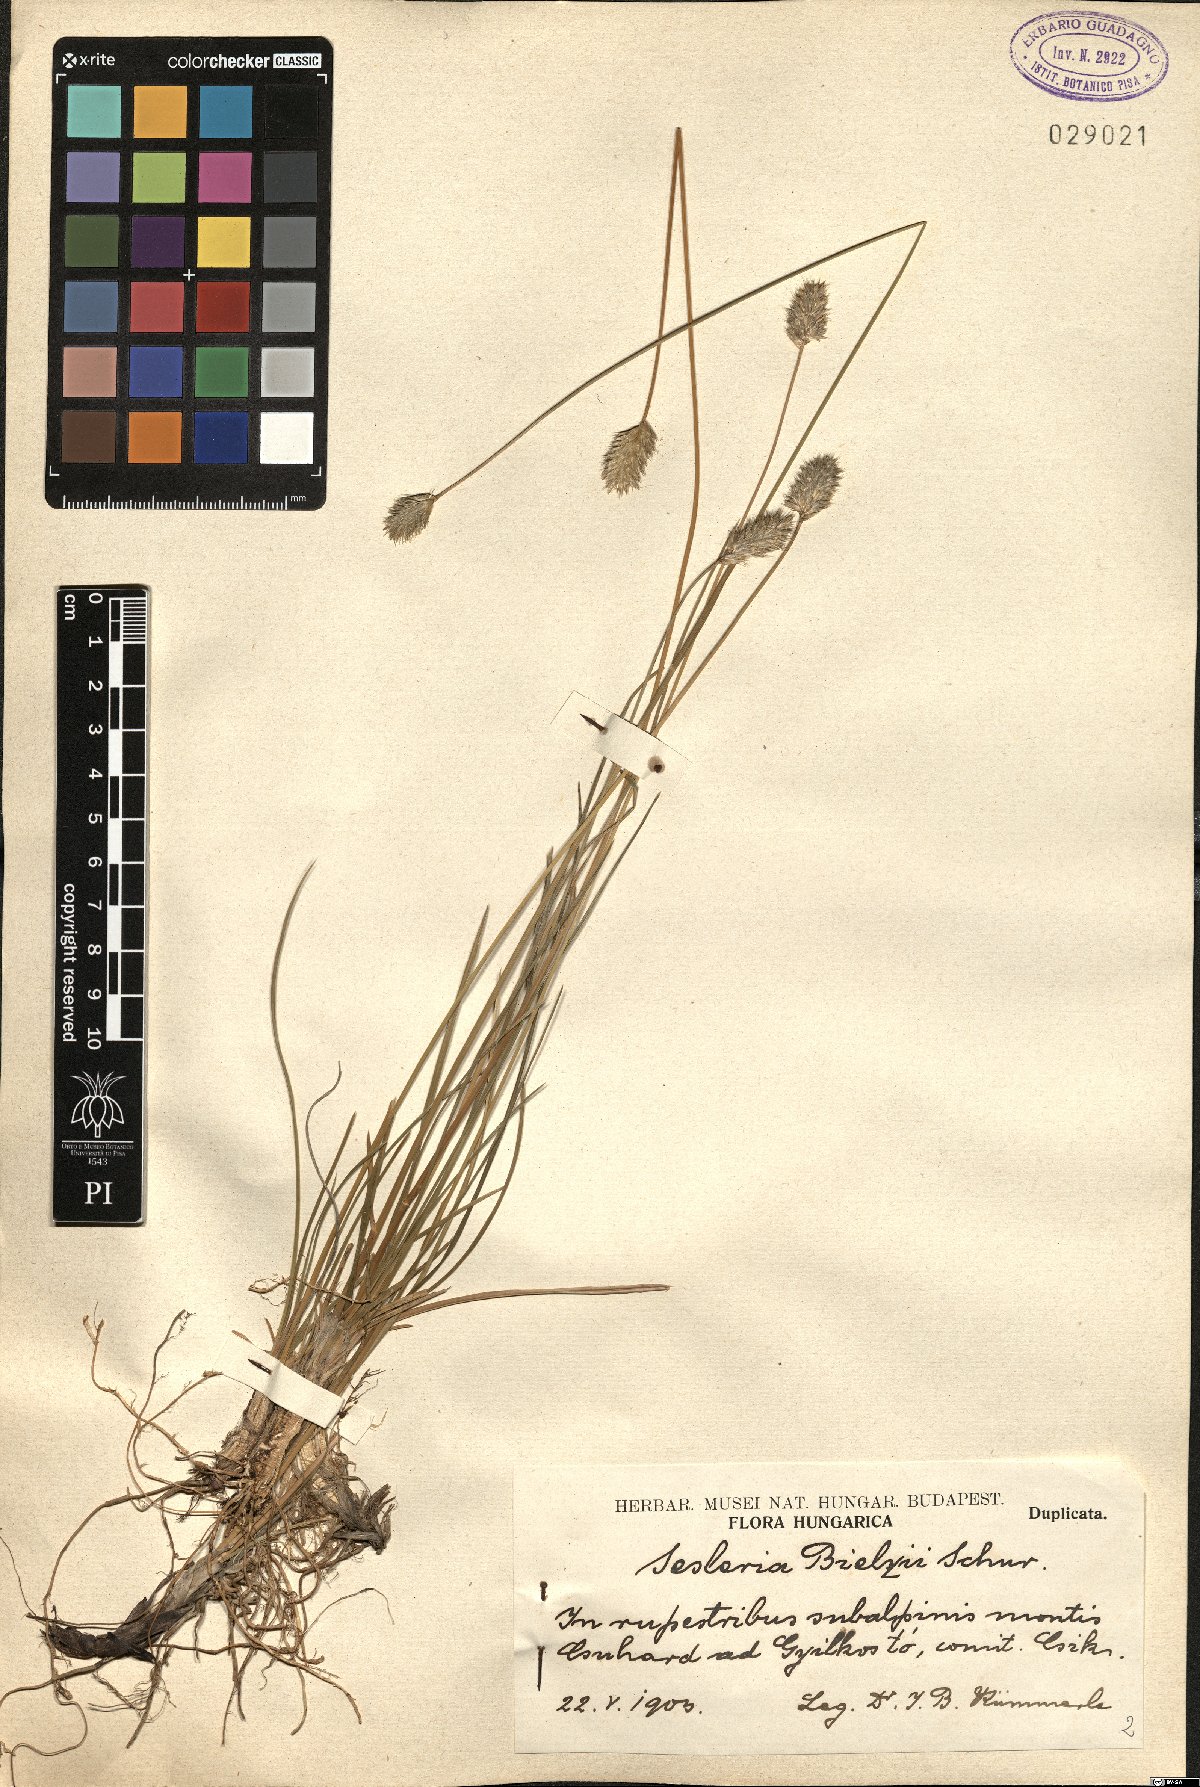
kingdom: Plantae
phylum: Tracheophyta
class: Liliopsida
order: Poales
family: Poaceae
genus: Sesleria
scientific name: Sesleria bielzii
